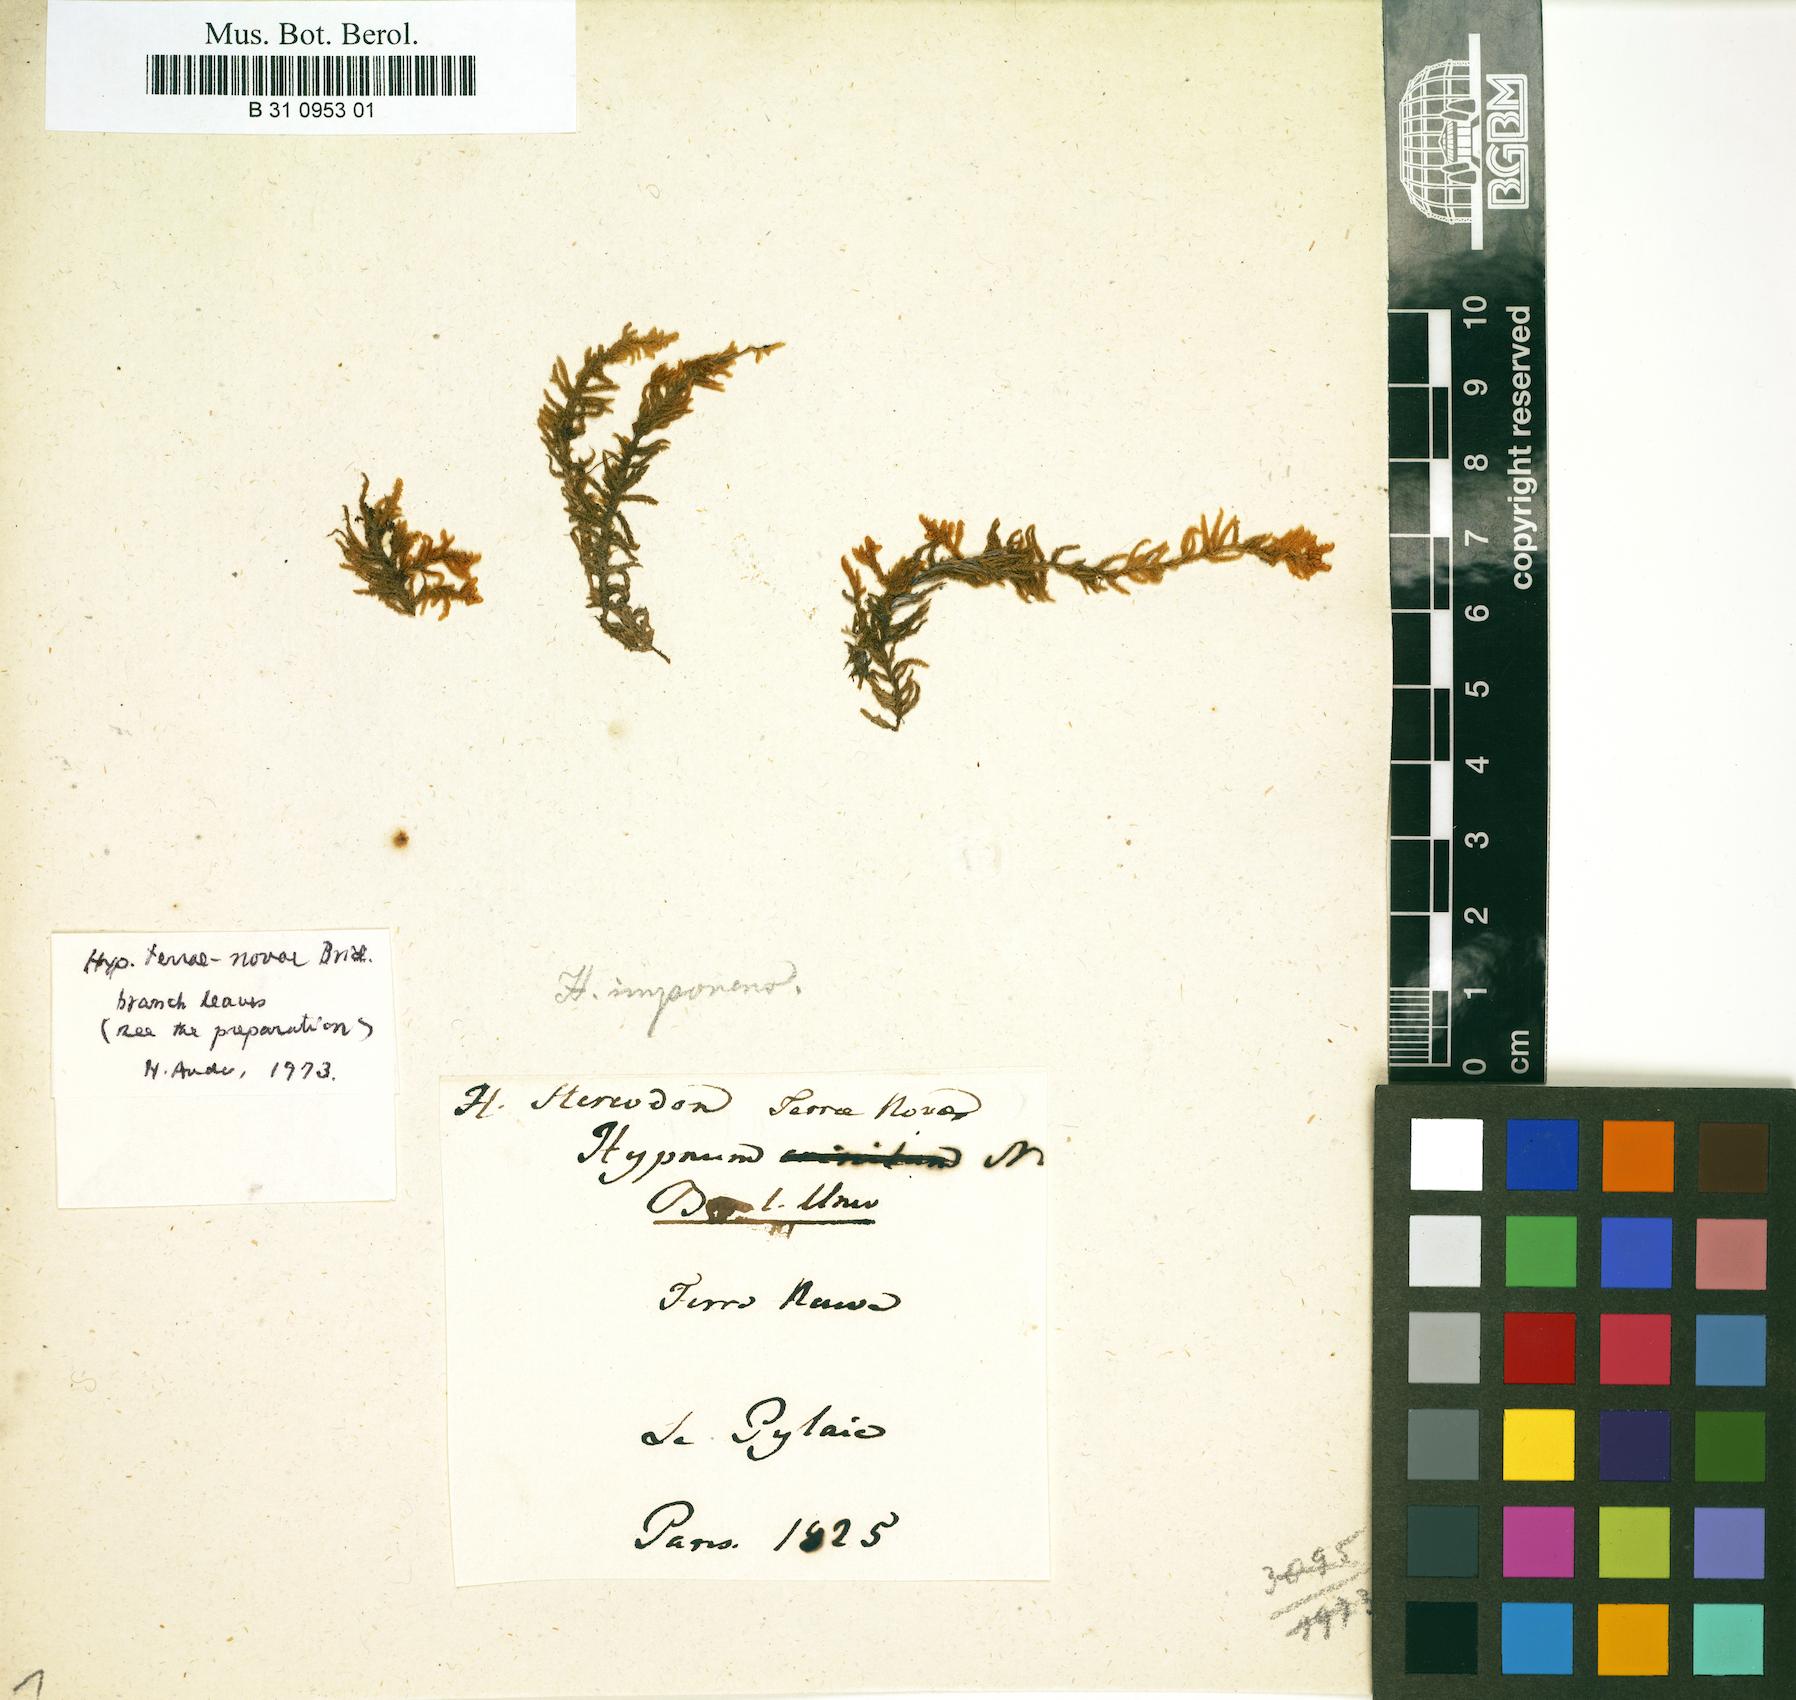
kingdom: Plantae
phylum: Bryophyta
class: Bryopsida
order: Hypnales
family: Callicladiaceae
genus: Callicladium
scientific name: Callicladium imponens
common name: Brocade moss
